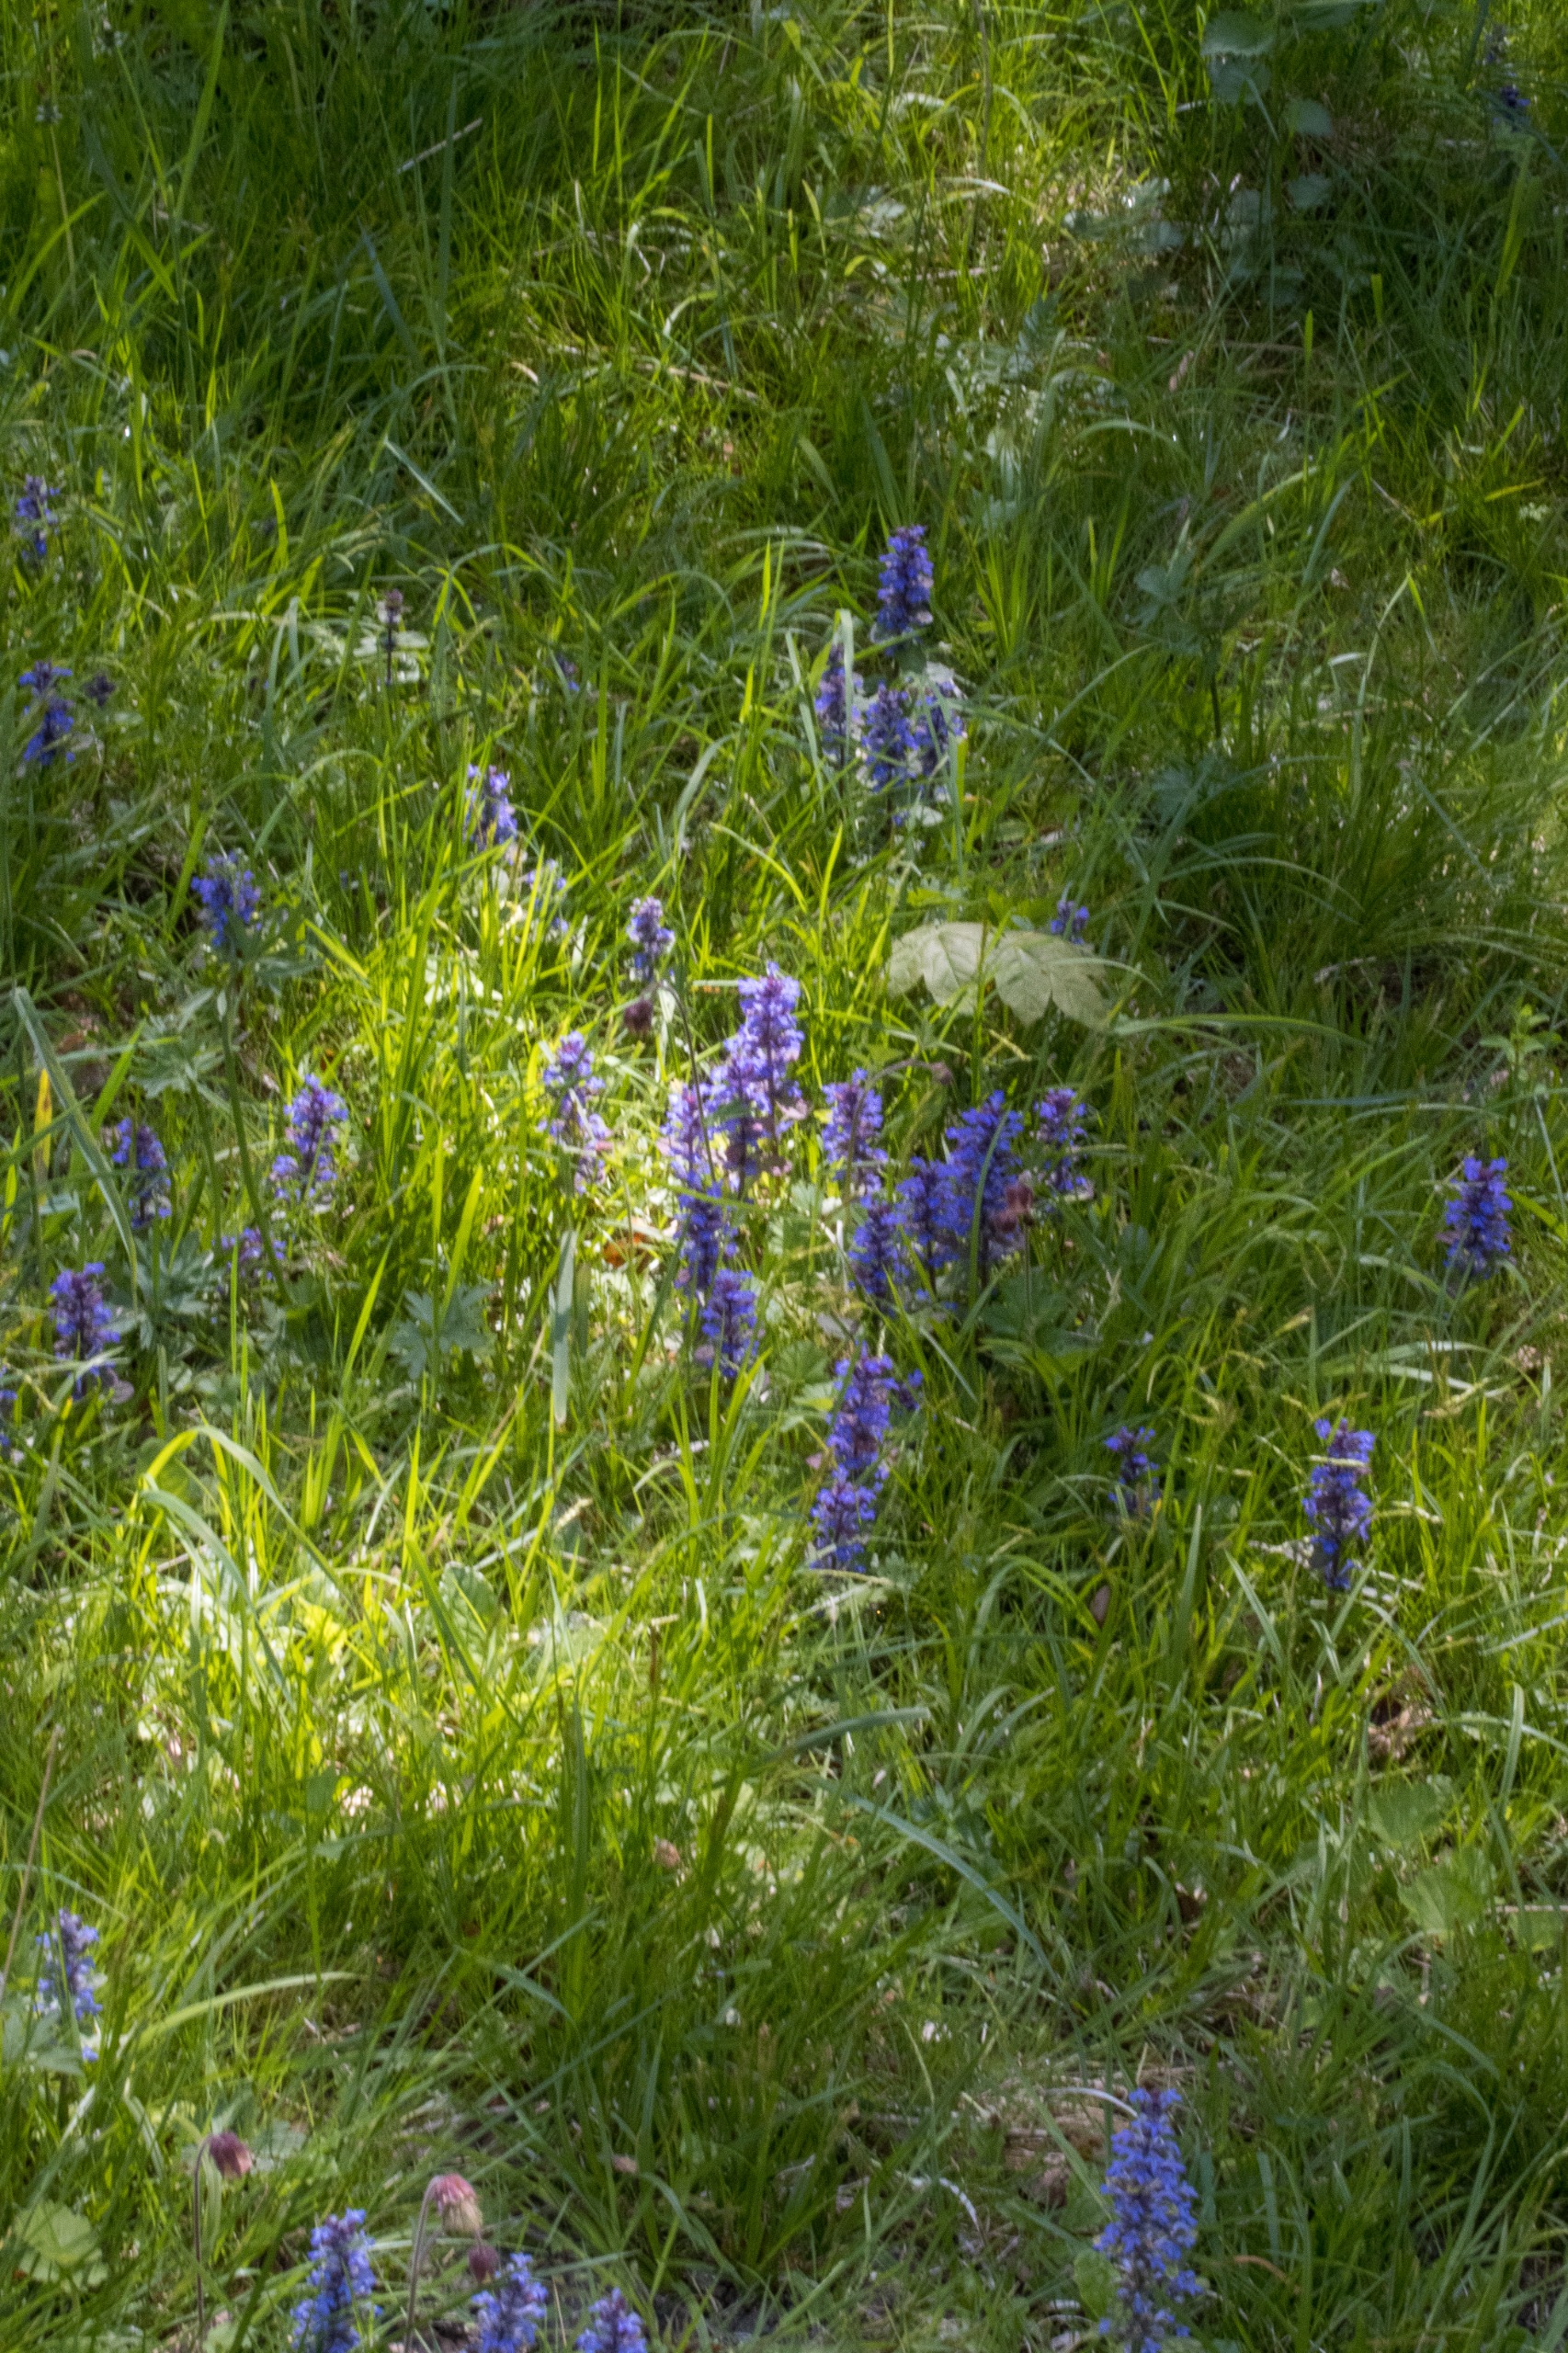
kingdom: Plantae
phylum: Tracheophyta
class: Magnoliopsida
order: Lamiales
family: Lamiaceae
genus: Ajuga
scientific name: Ajuga reptans
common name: Krybende læbeløs
